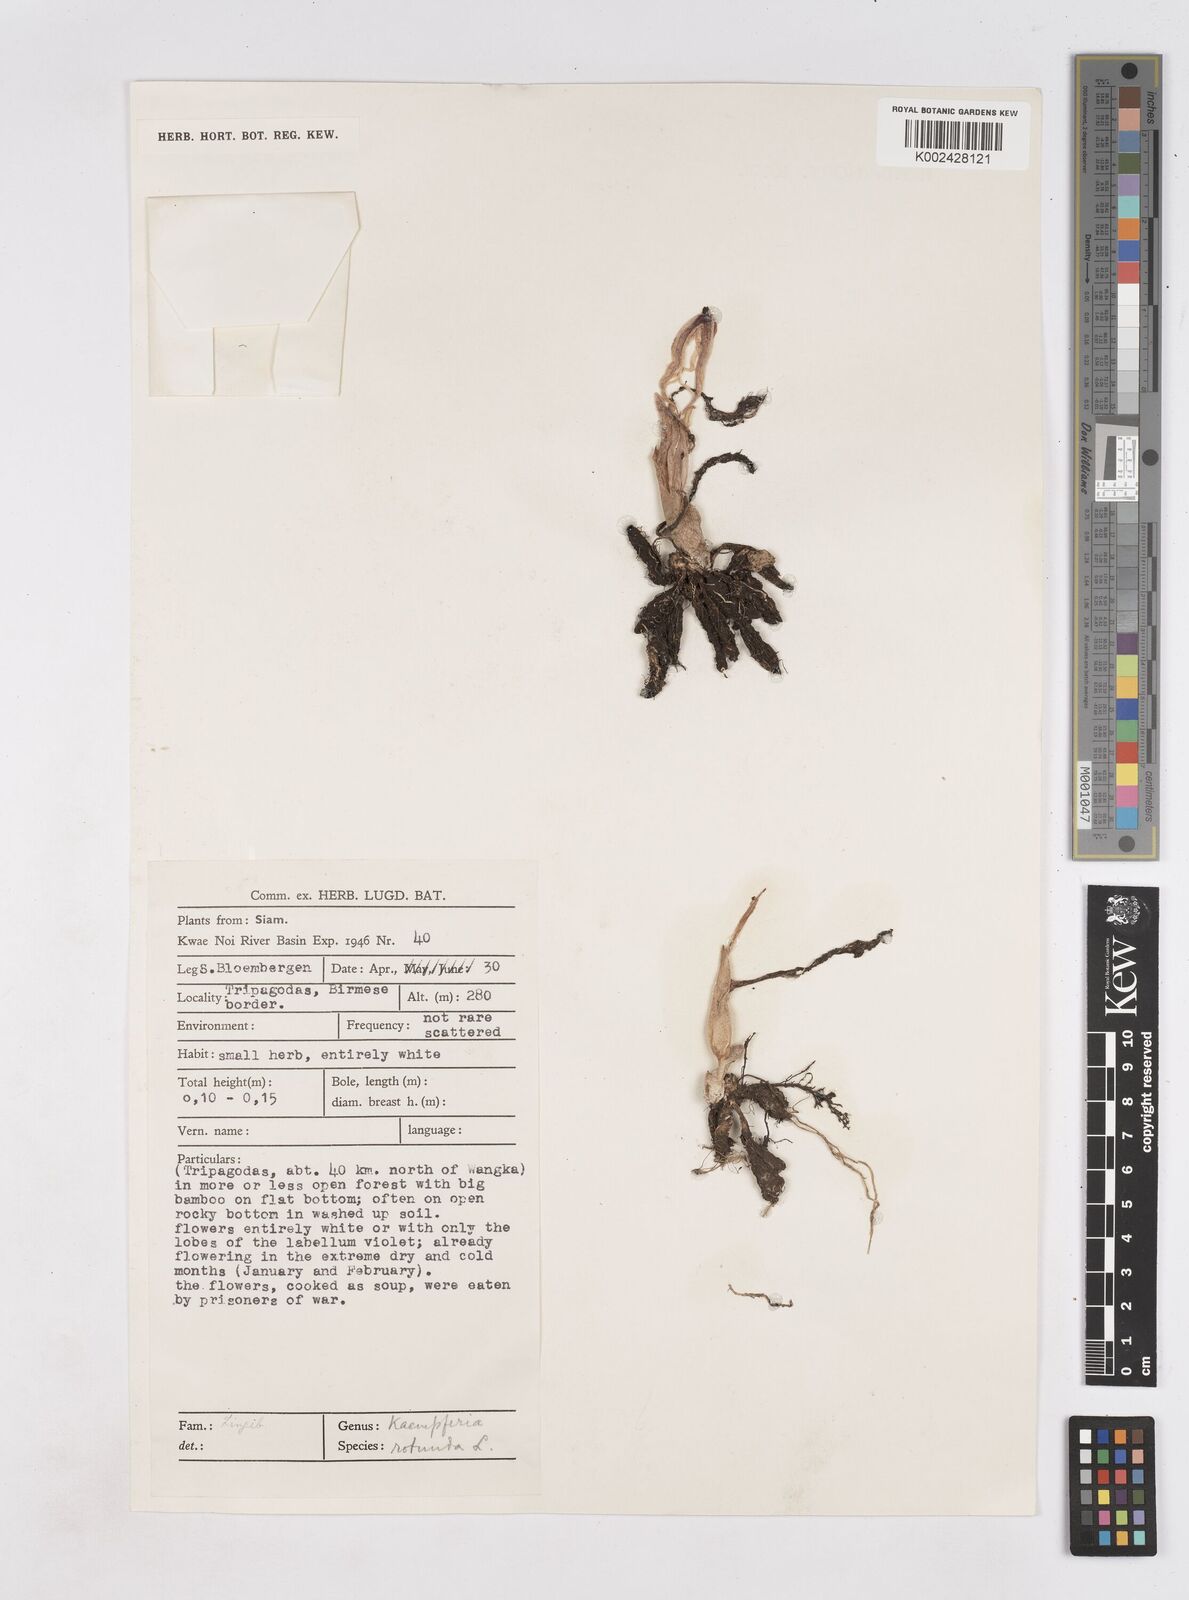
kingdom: Plantae
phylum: Tracheophyta
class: Liliopsida
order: Zingiberales
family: Zingiberaceae
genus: Kaempferia
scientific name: Kaempferia rotunda
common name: Tropical-crocus
